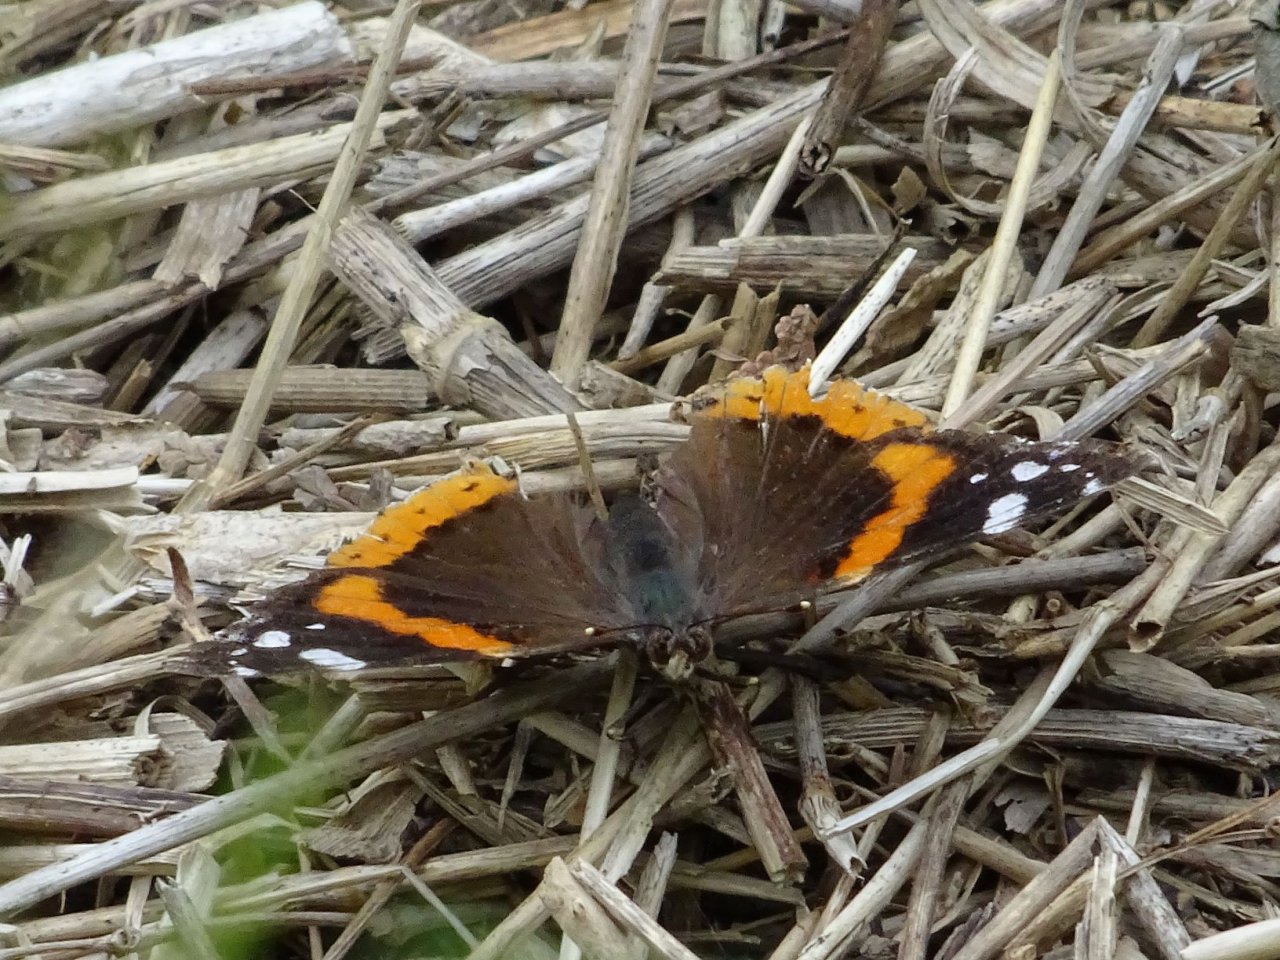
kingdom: Animalia
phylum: Arthropoda
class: Insecta
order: Lepidoptera
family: Nymphalidae
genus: Vanessa
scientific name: Vanessa atalanta
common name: Red Admiral
